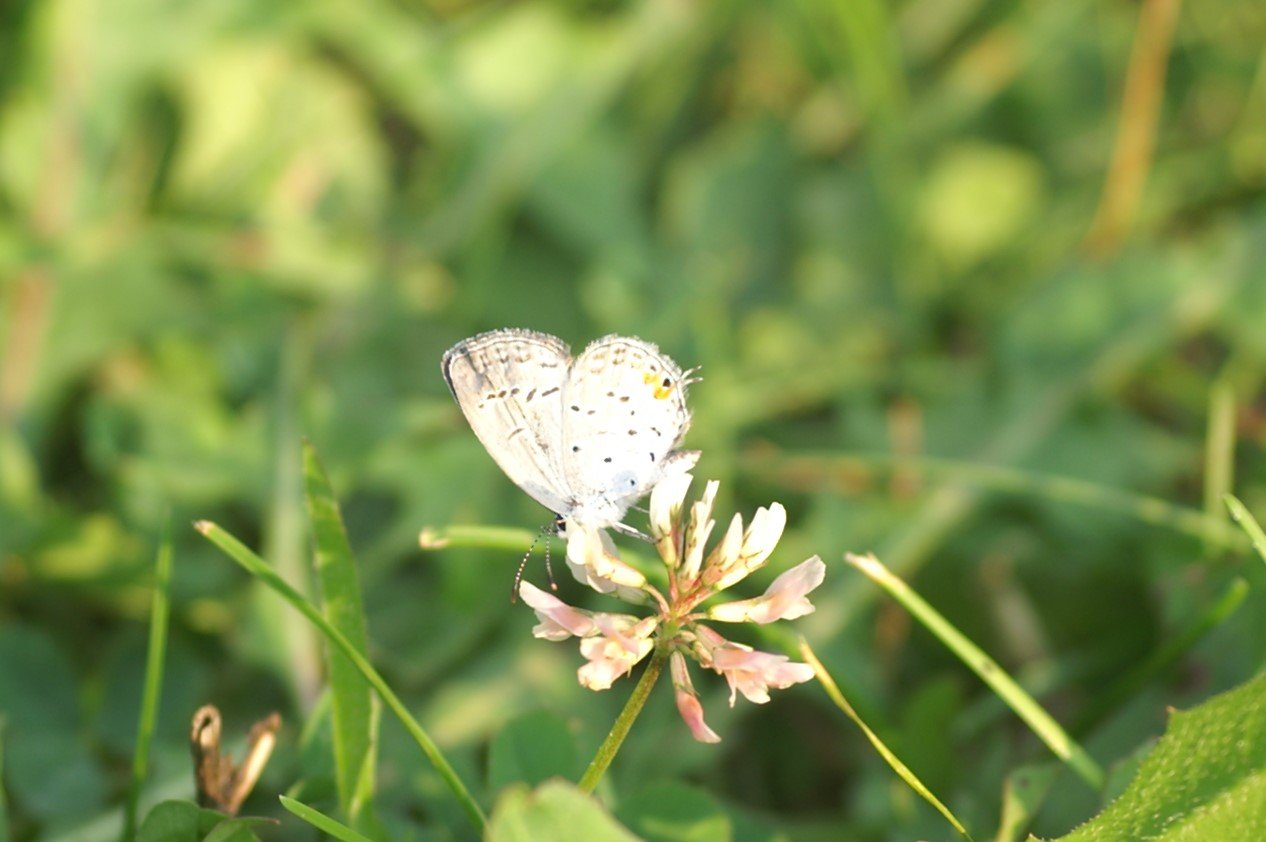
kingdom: Animalia
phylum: Arthropoda
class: Insecta
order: Lepidoptera
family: Lycaenidae
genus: Elkalyce
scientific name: Elkalyce comyntas
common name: Eastern Tailed-Blue
